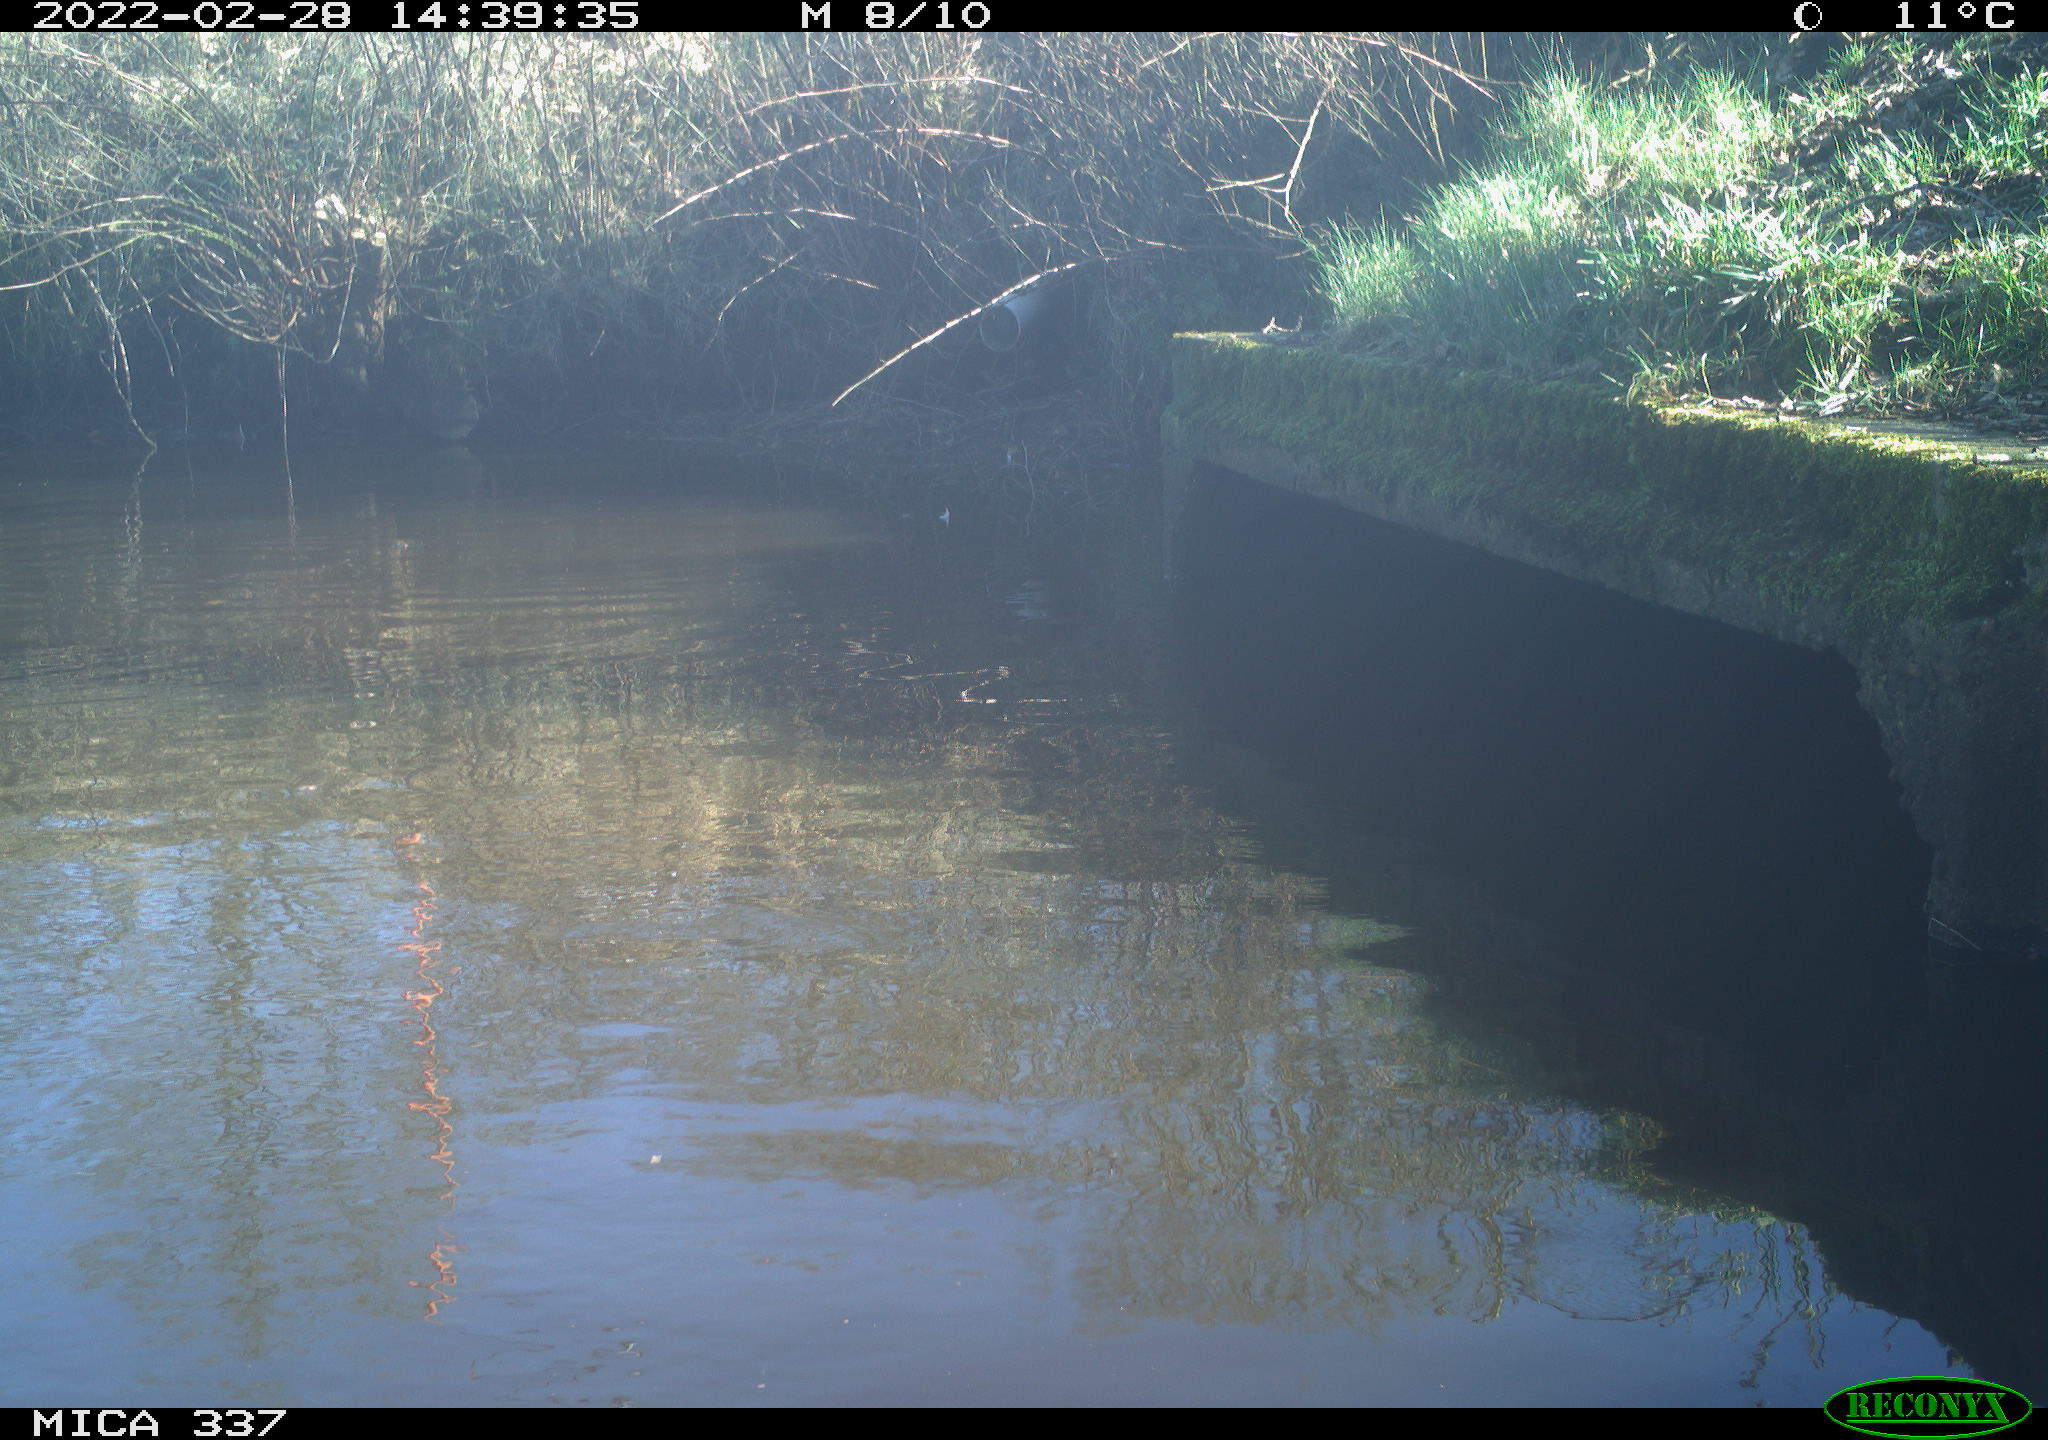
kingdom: Animalia
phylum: Chordata
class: Aves
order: Anseriformes
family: Anatidae
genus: Anas
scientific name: Anas platyrhynchos
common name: Mallard
